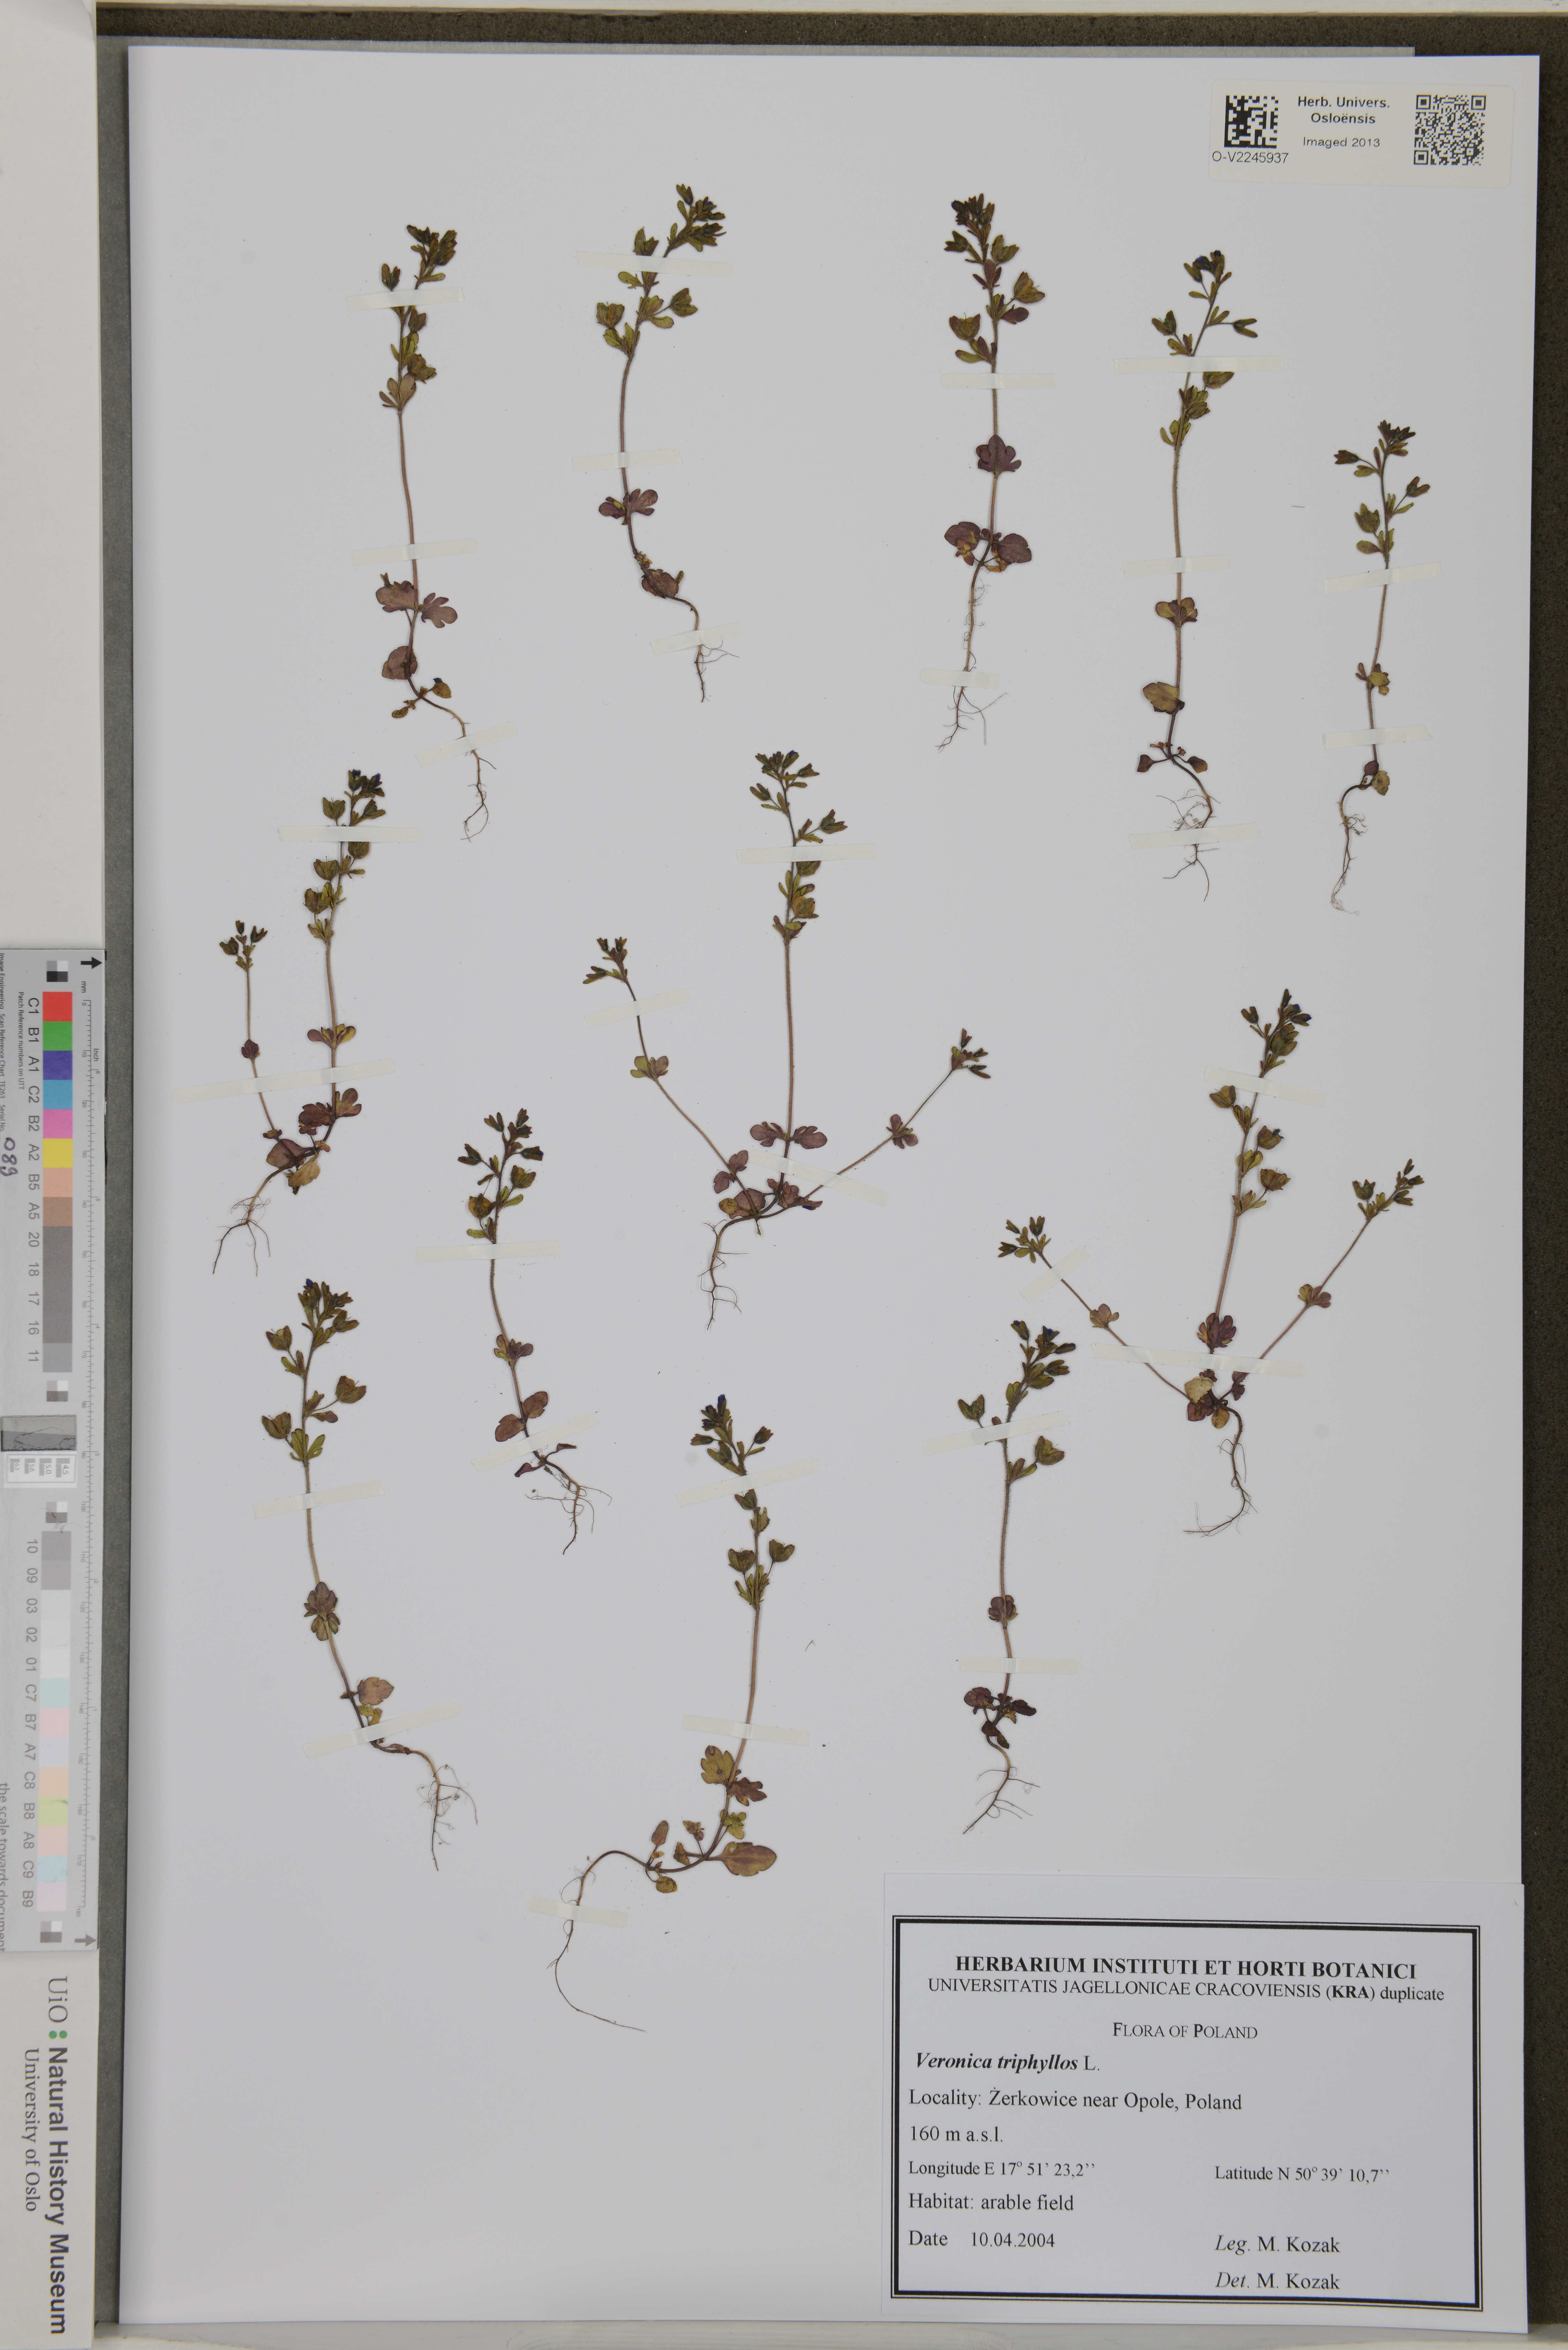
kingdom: Plantae
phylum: Tracheophyta
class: Magnoliopsida
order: Lamiales
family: Plantaginaceae
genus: Veronica
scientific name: Veronica triphyllos
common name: Fingered speedwell
